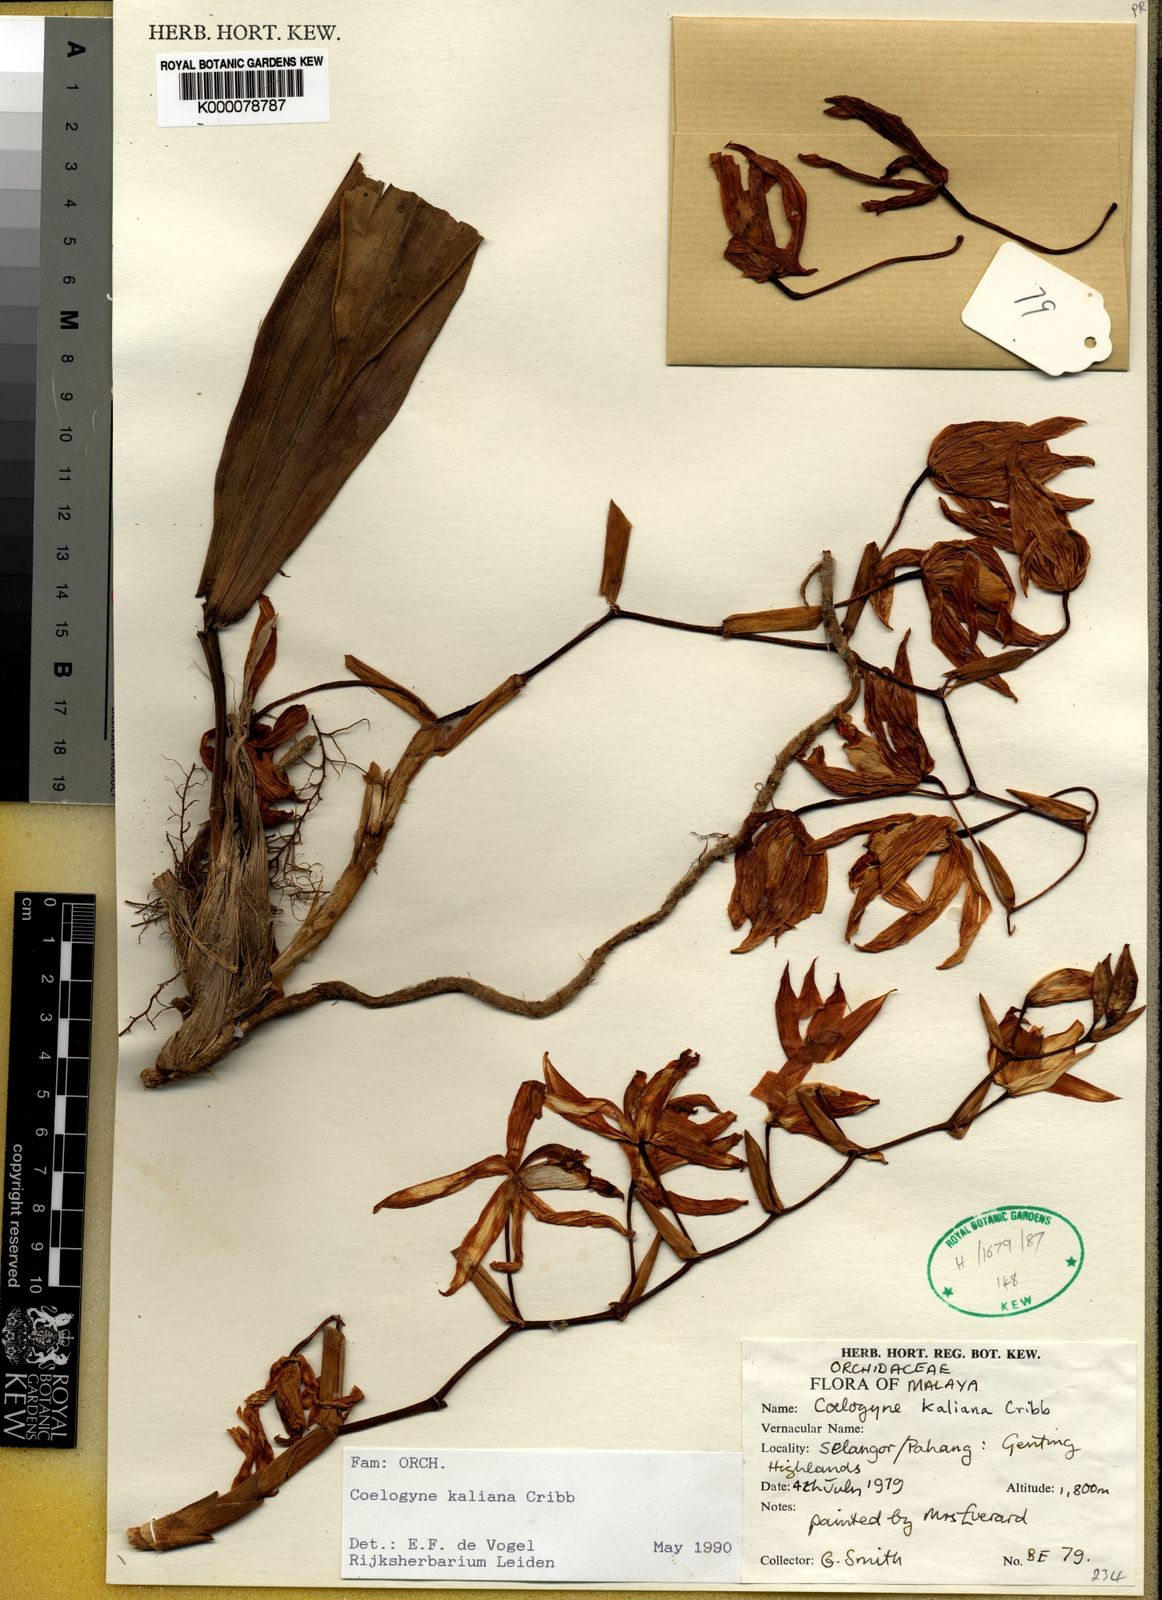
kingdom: Plantae
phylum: Tracheophyta
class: Liliopsida
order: Asparagales
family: Orchidaceae
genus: Coelogyne
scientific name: Coelogyne kaliana
